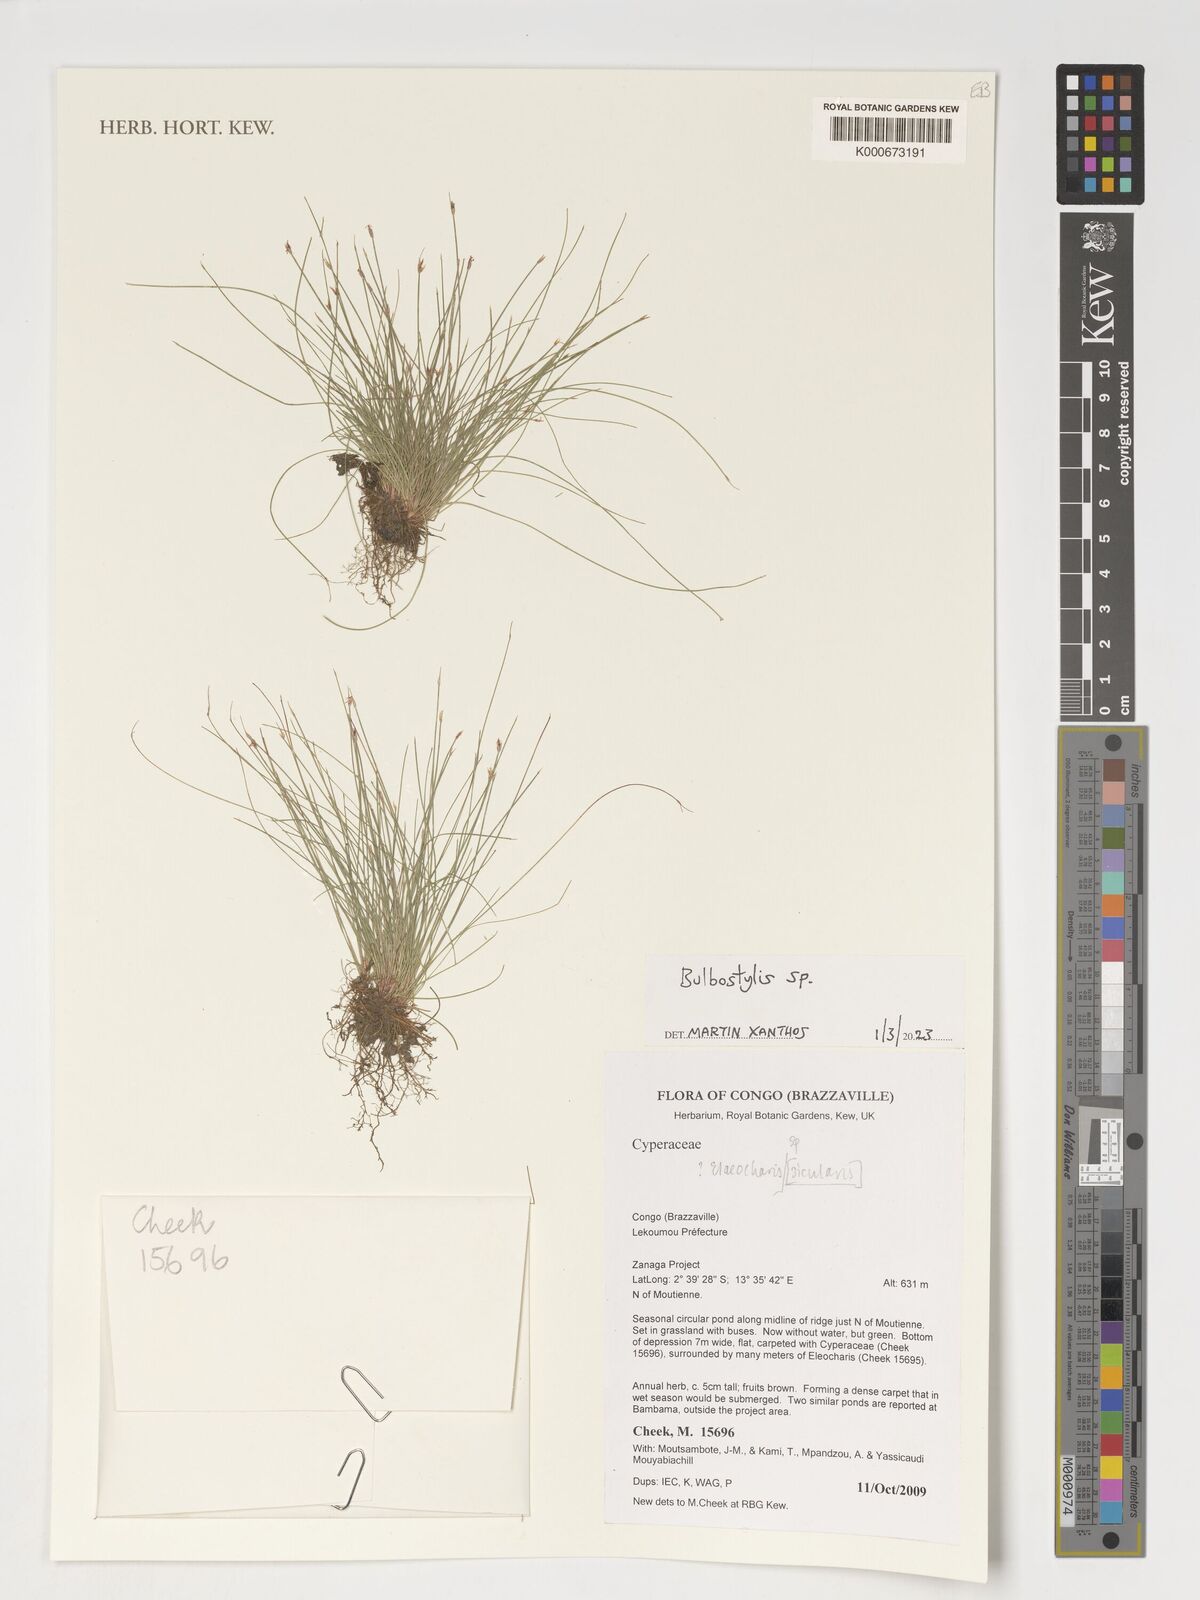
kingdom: Plantae
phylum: Tracheophyta
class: Liliopsida
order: Poales
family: Cyperaceae
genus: Eleocharis
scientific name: Eleocharis
